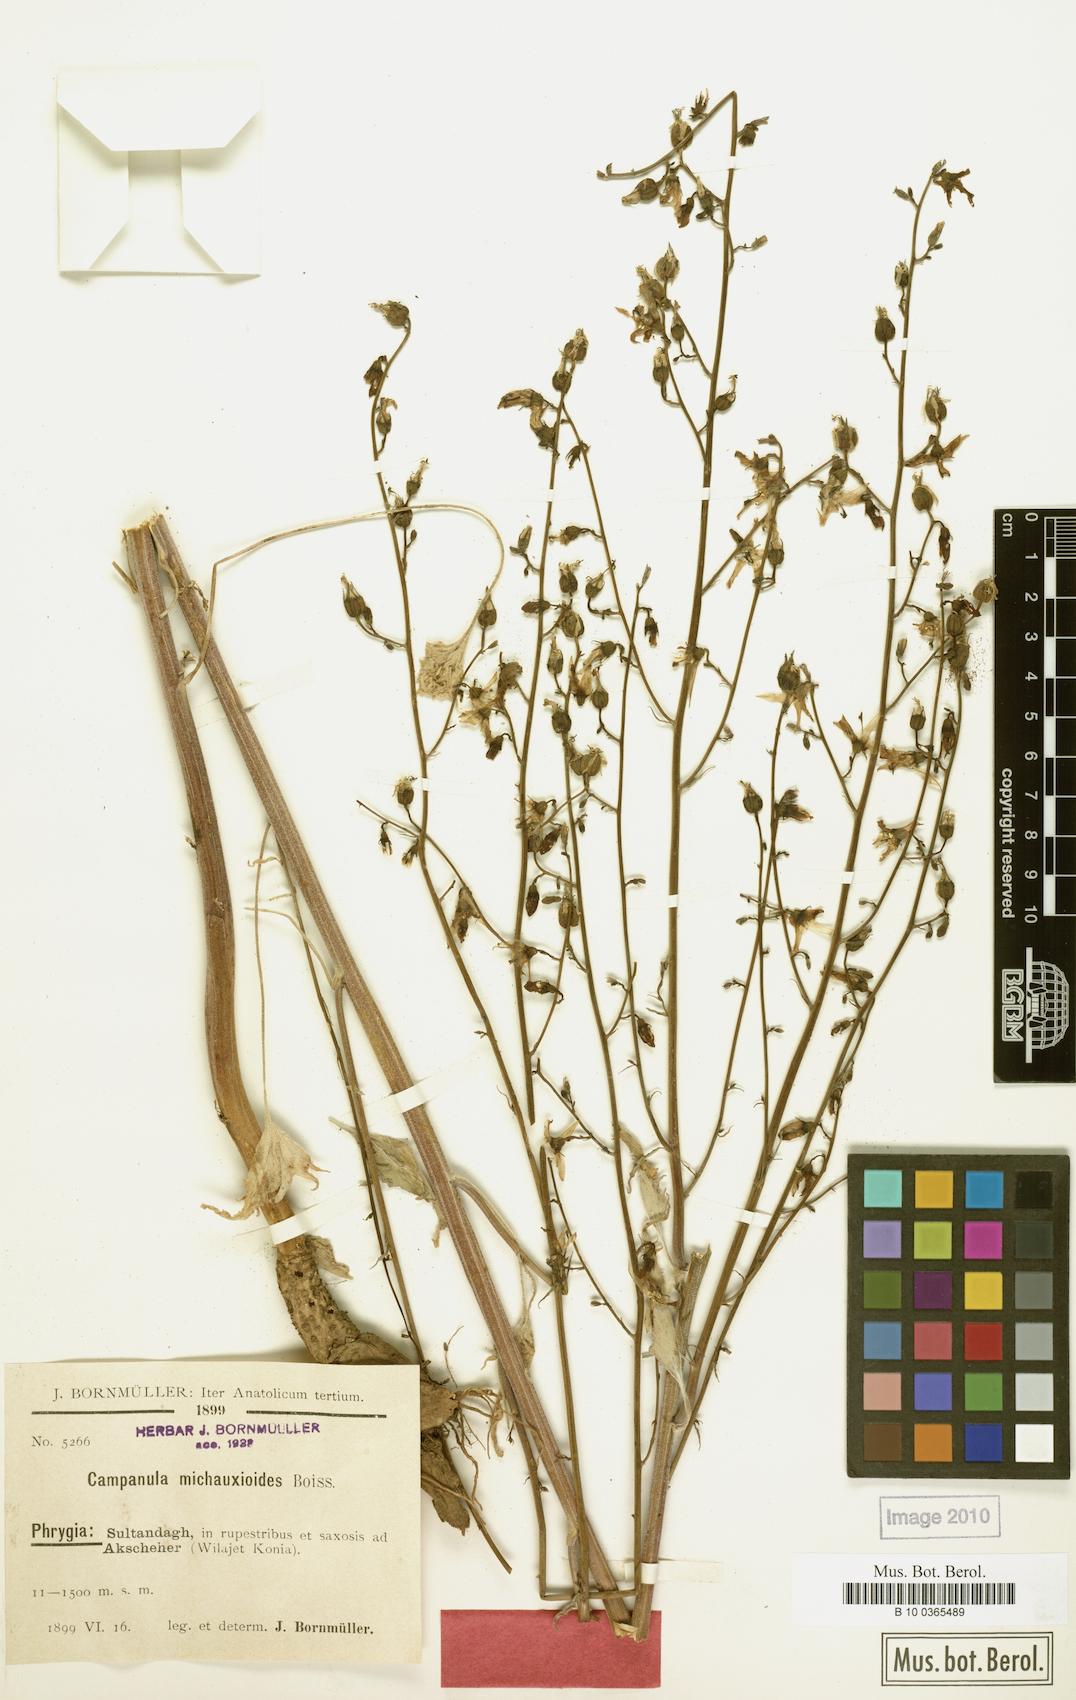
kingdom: Plantae
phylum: Tracheophyta
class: Magnoliopsida
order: Asterales
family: Campanulaceae
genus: Asyneuma
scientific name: Asyneuma michauxioides
